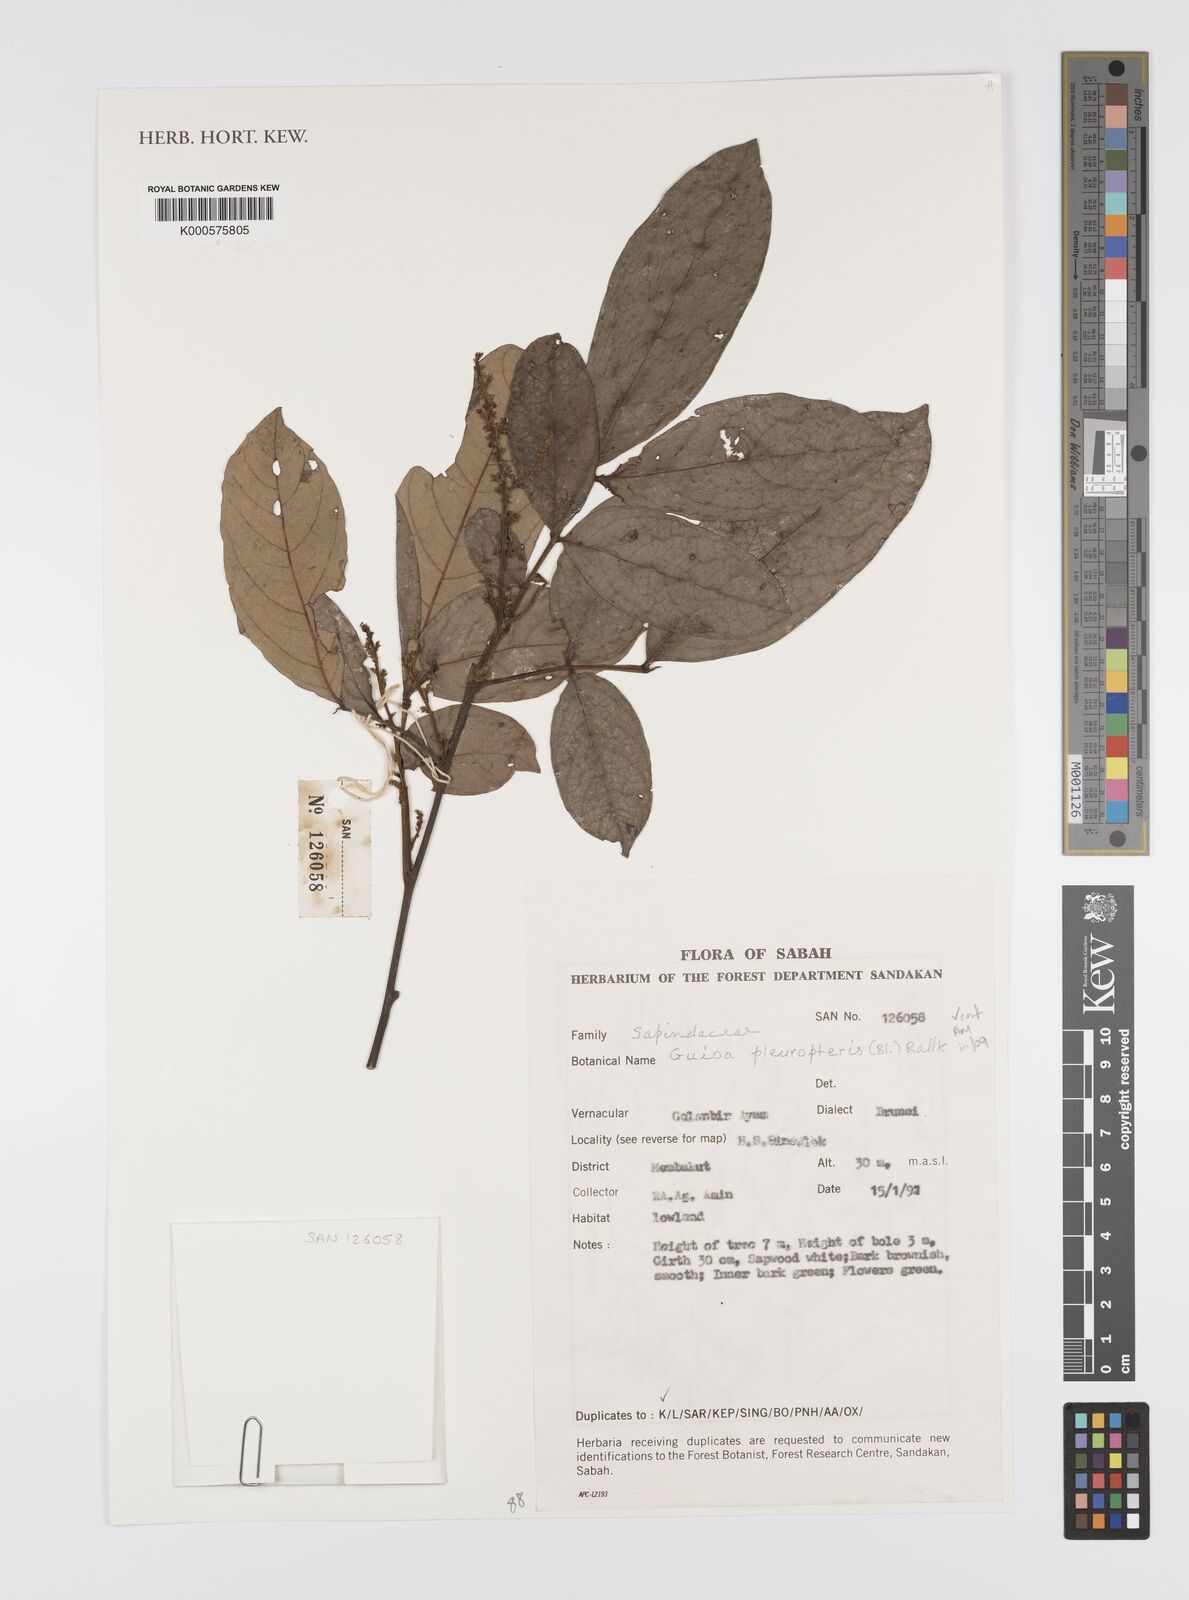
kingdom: Plantae
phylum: Tracheophyta
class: Magnoliopsida
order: Sapindales
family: Sapindaceae
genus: Guioa
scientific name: Guioa pleuropteris
